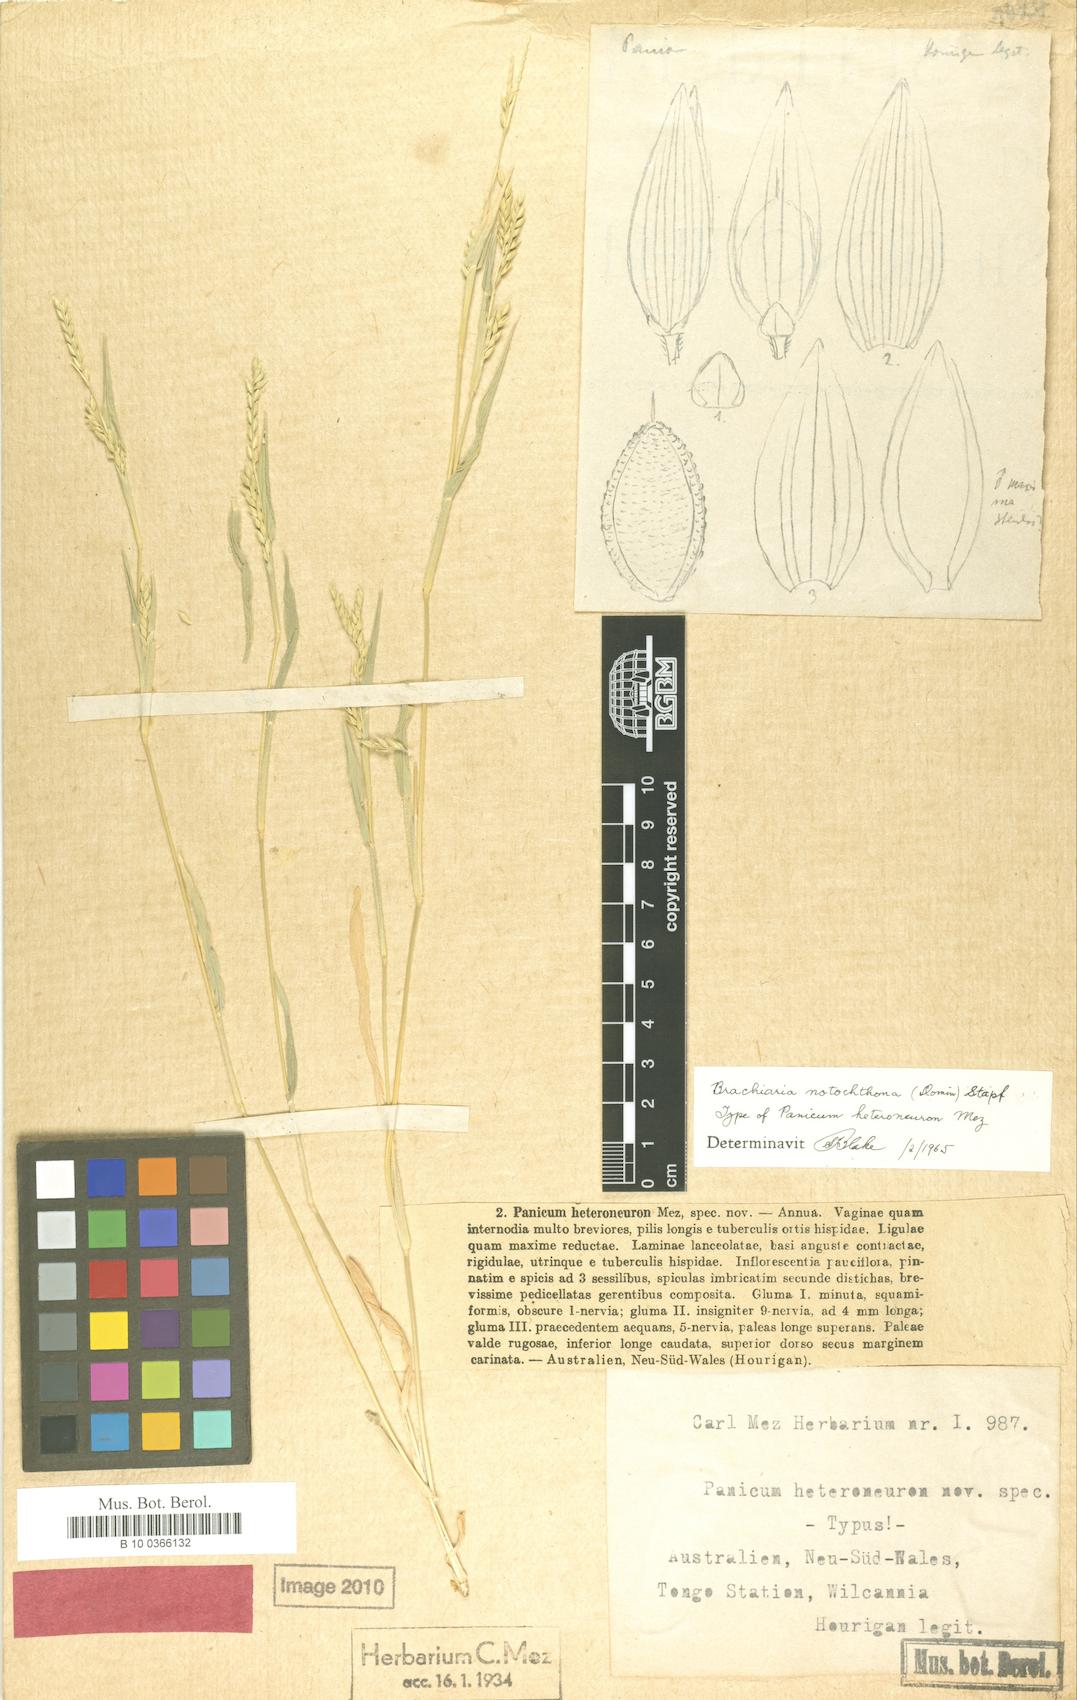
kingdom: Plantae
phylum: Tracheophyta
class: Liliopsida
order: Poales
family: Poaceae
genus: Urochloa
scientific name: Urochloa notochthona
